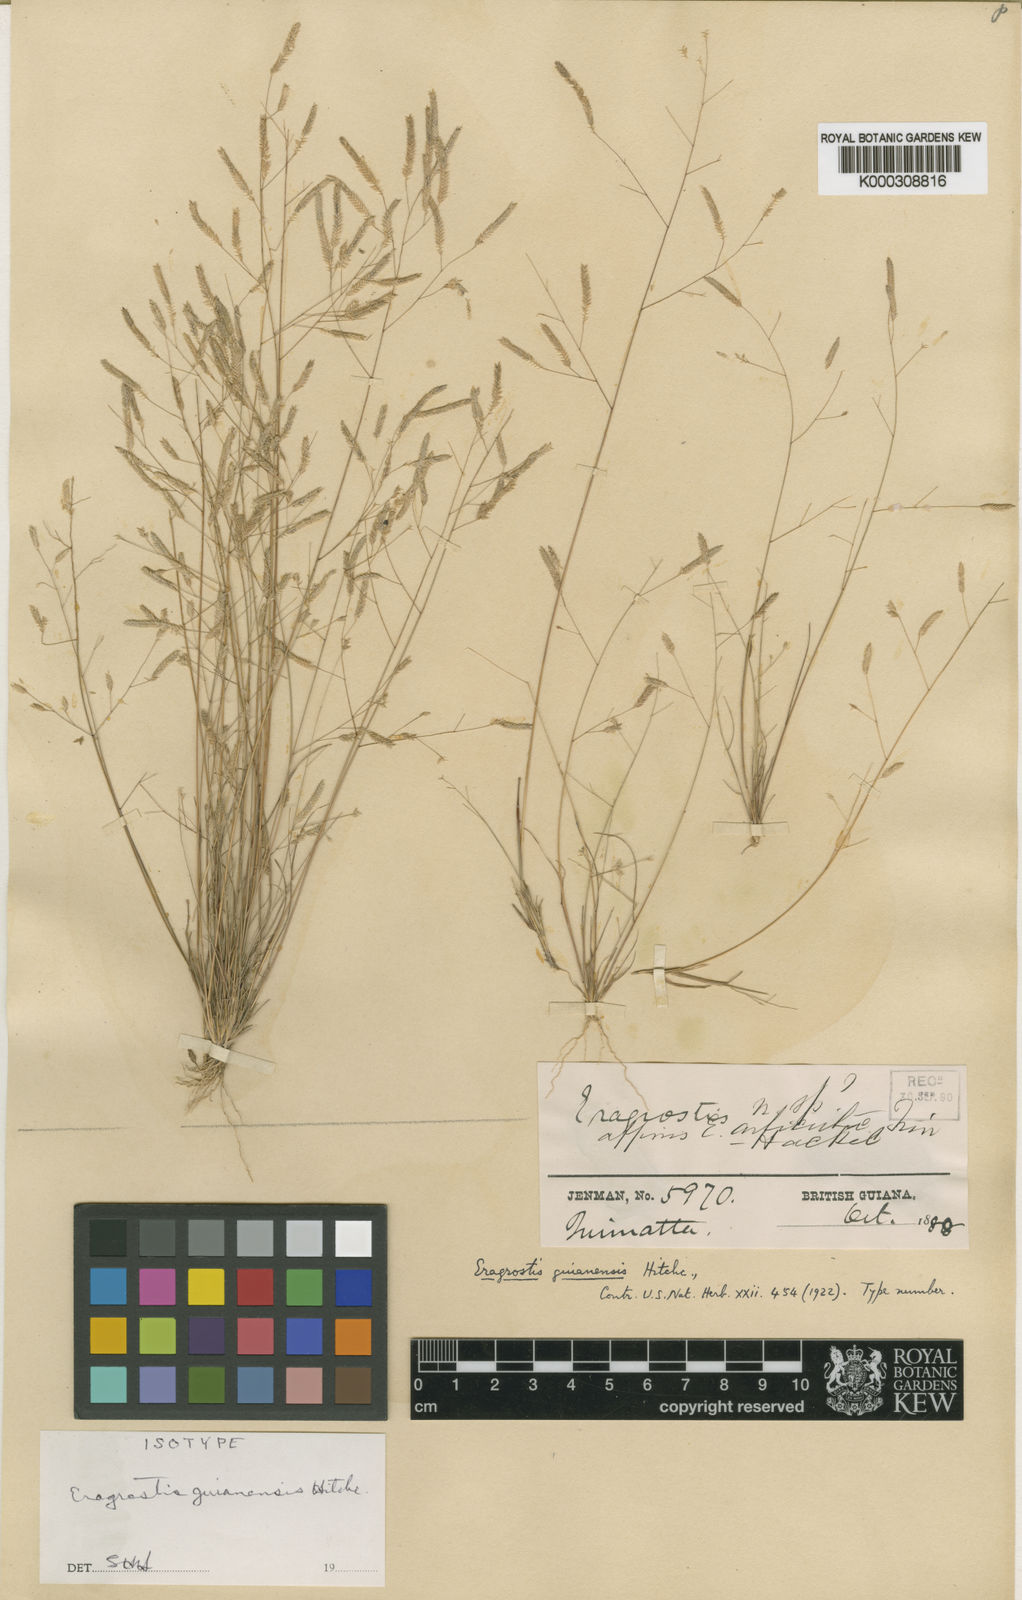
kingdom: Plantae
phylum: Tracheophyta
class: Liliopsida
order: Poales
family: Poaceae
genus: Eragrostis
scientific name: Eragrostis guianensis
